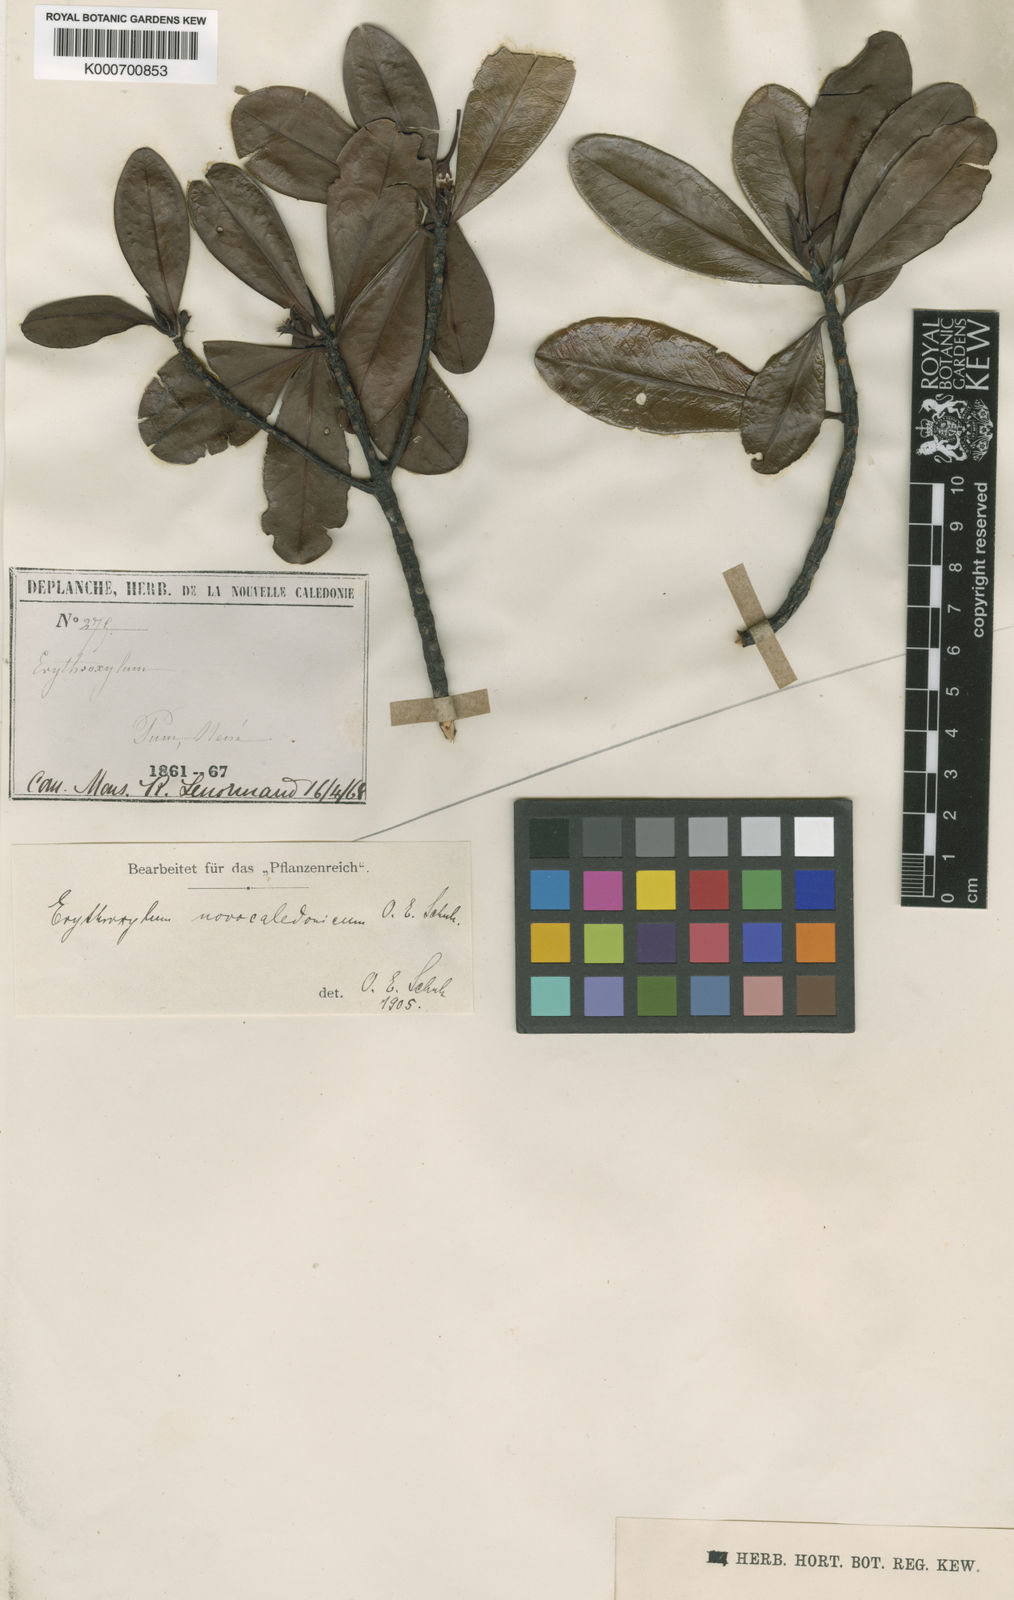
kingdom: Plantae
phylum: Tracheophyta
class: Magnoliopsida
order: Malpighiales
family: Erythroxylaceae
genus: Erythroxylum
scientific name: Erythroxylum novocaledonicum
